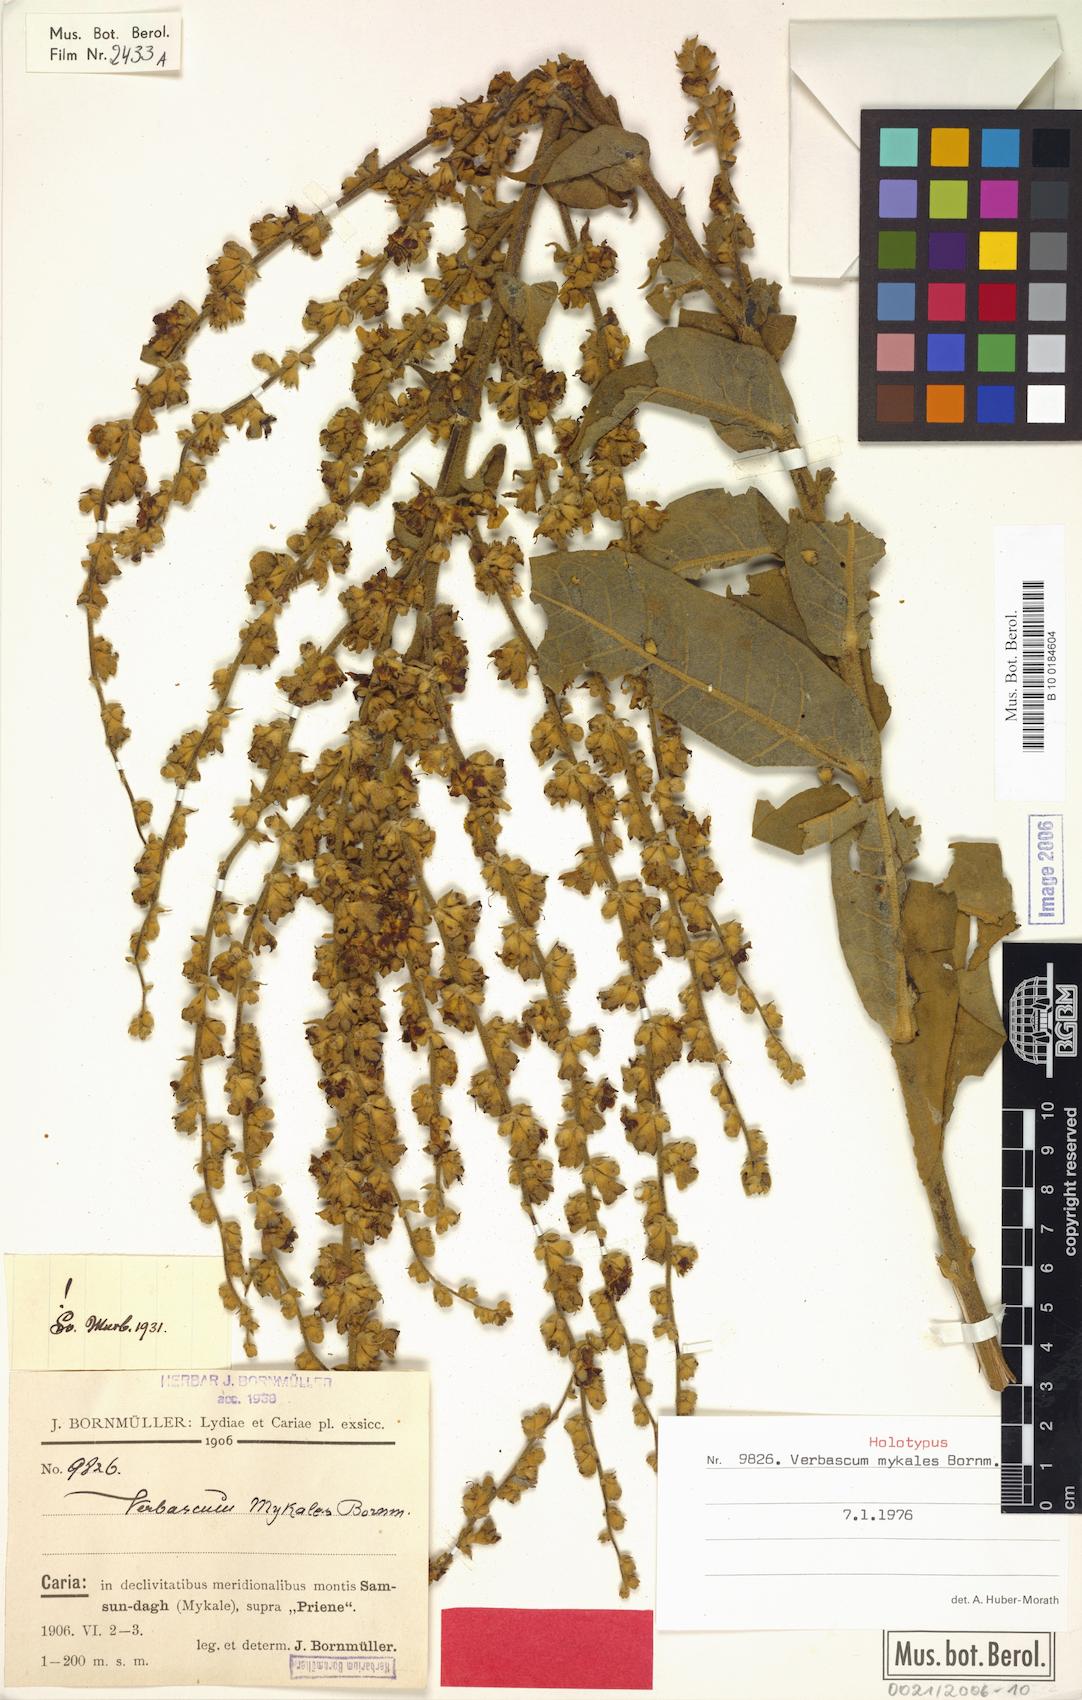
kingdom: Plantae
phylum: Tracheophyta
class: Magnoliopsida
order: Lamiales
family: Scrophulariaceae
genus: Verbascum
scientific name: Verbascum mykales
